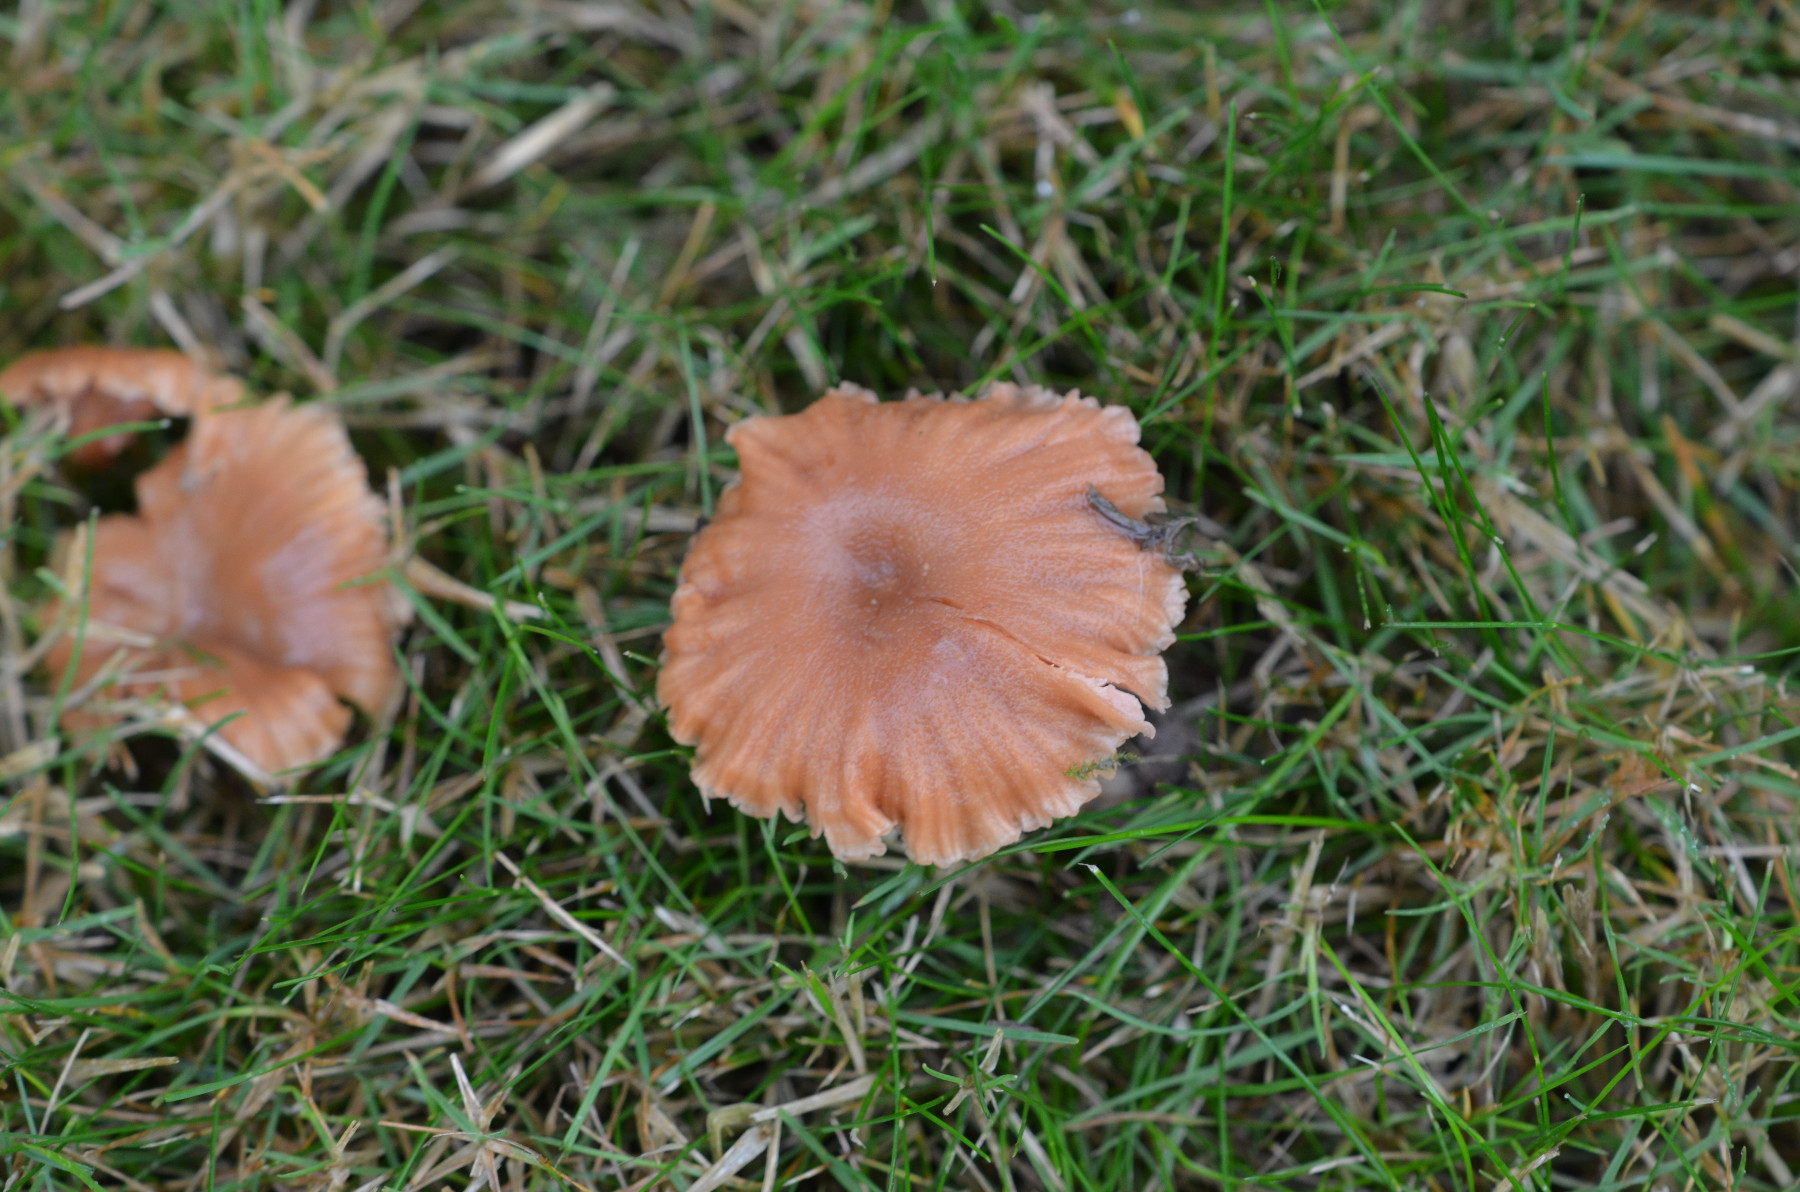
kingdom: Fungi
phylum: Basidiomycota
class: Agaricomycetes
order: Agaricales
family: Hydnangiaceae
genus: Laccaria
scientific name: Laccaria laccata
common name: rød ametysthat
